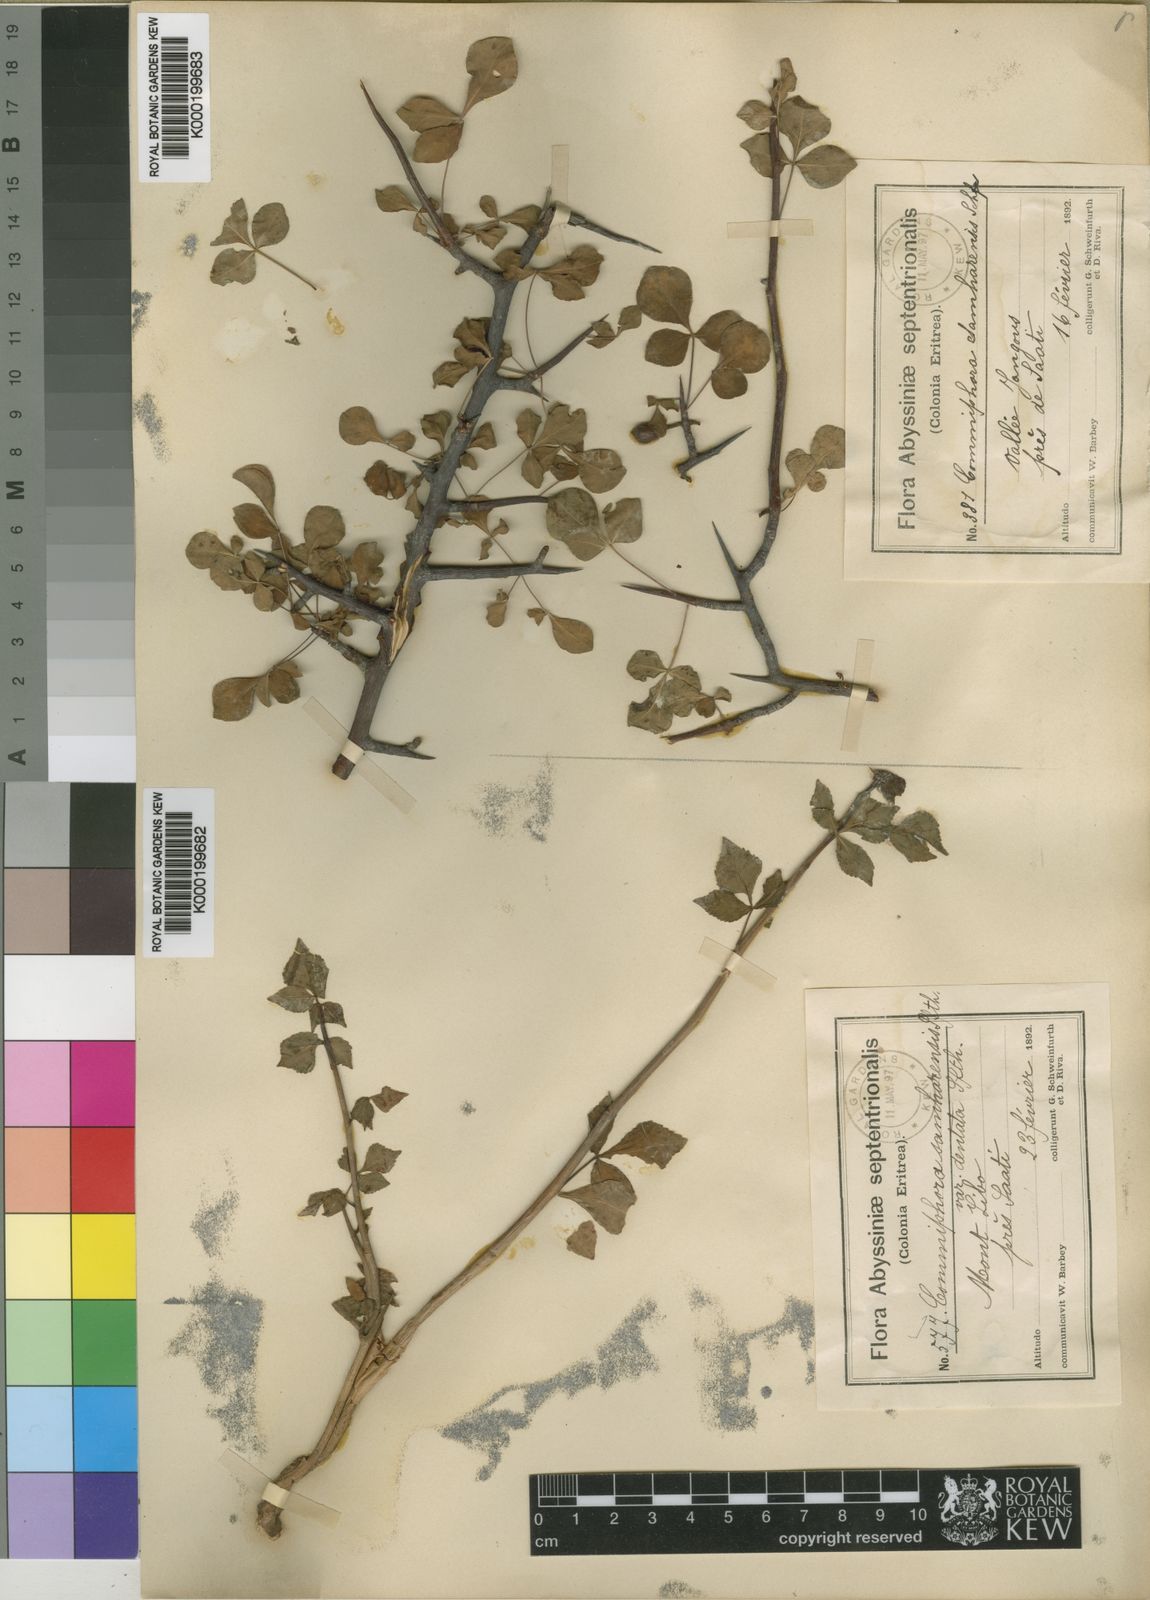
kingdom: Plantae
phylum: Tracheophyta
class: Magnoliopsida
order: Sapindales
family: Burseraceae
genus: Commiphora
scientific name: Commiphora samharensis
